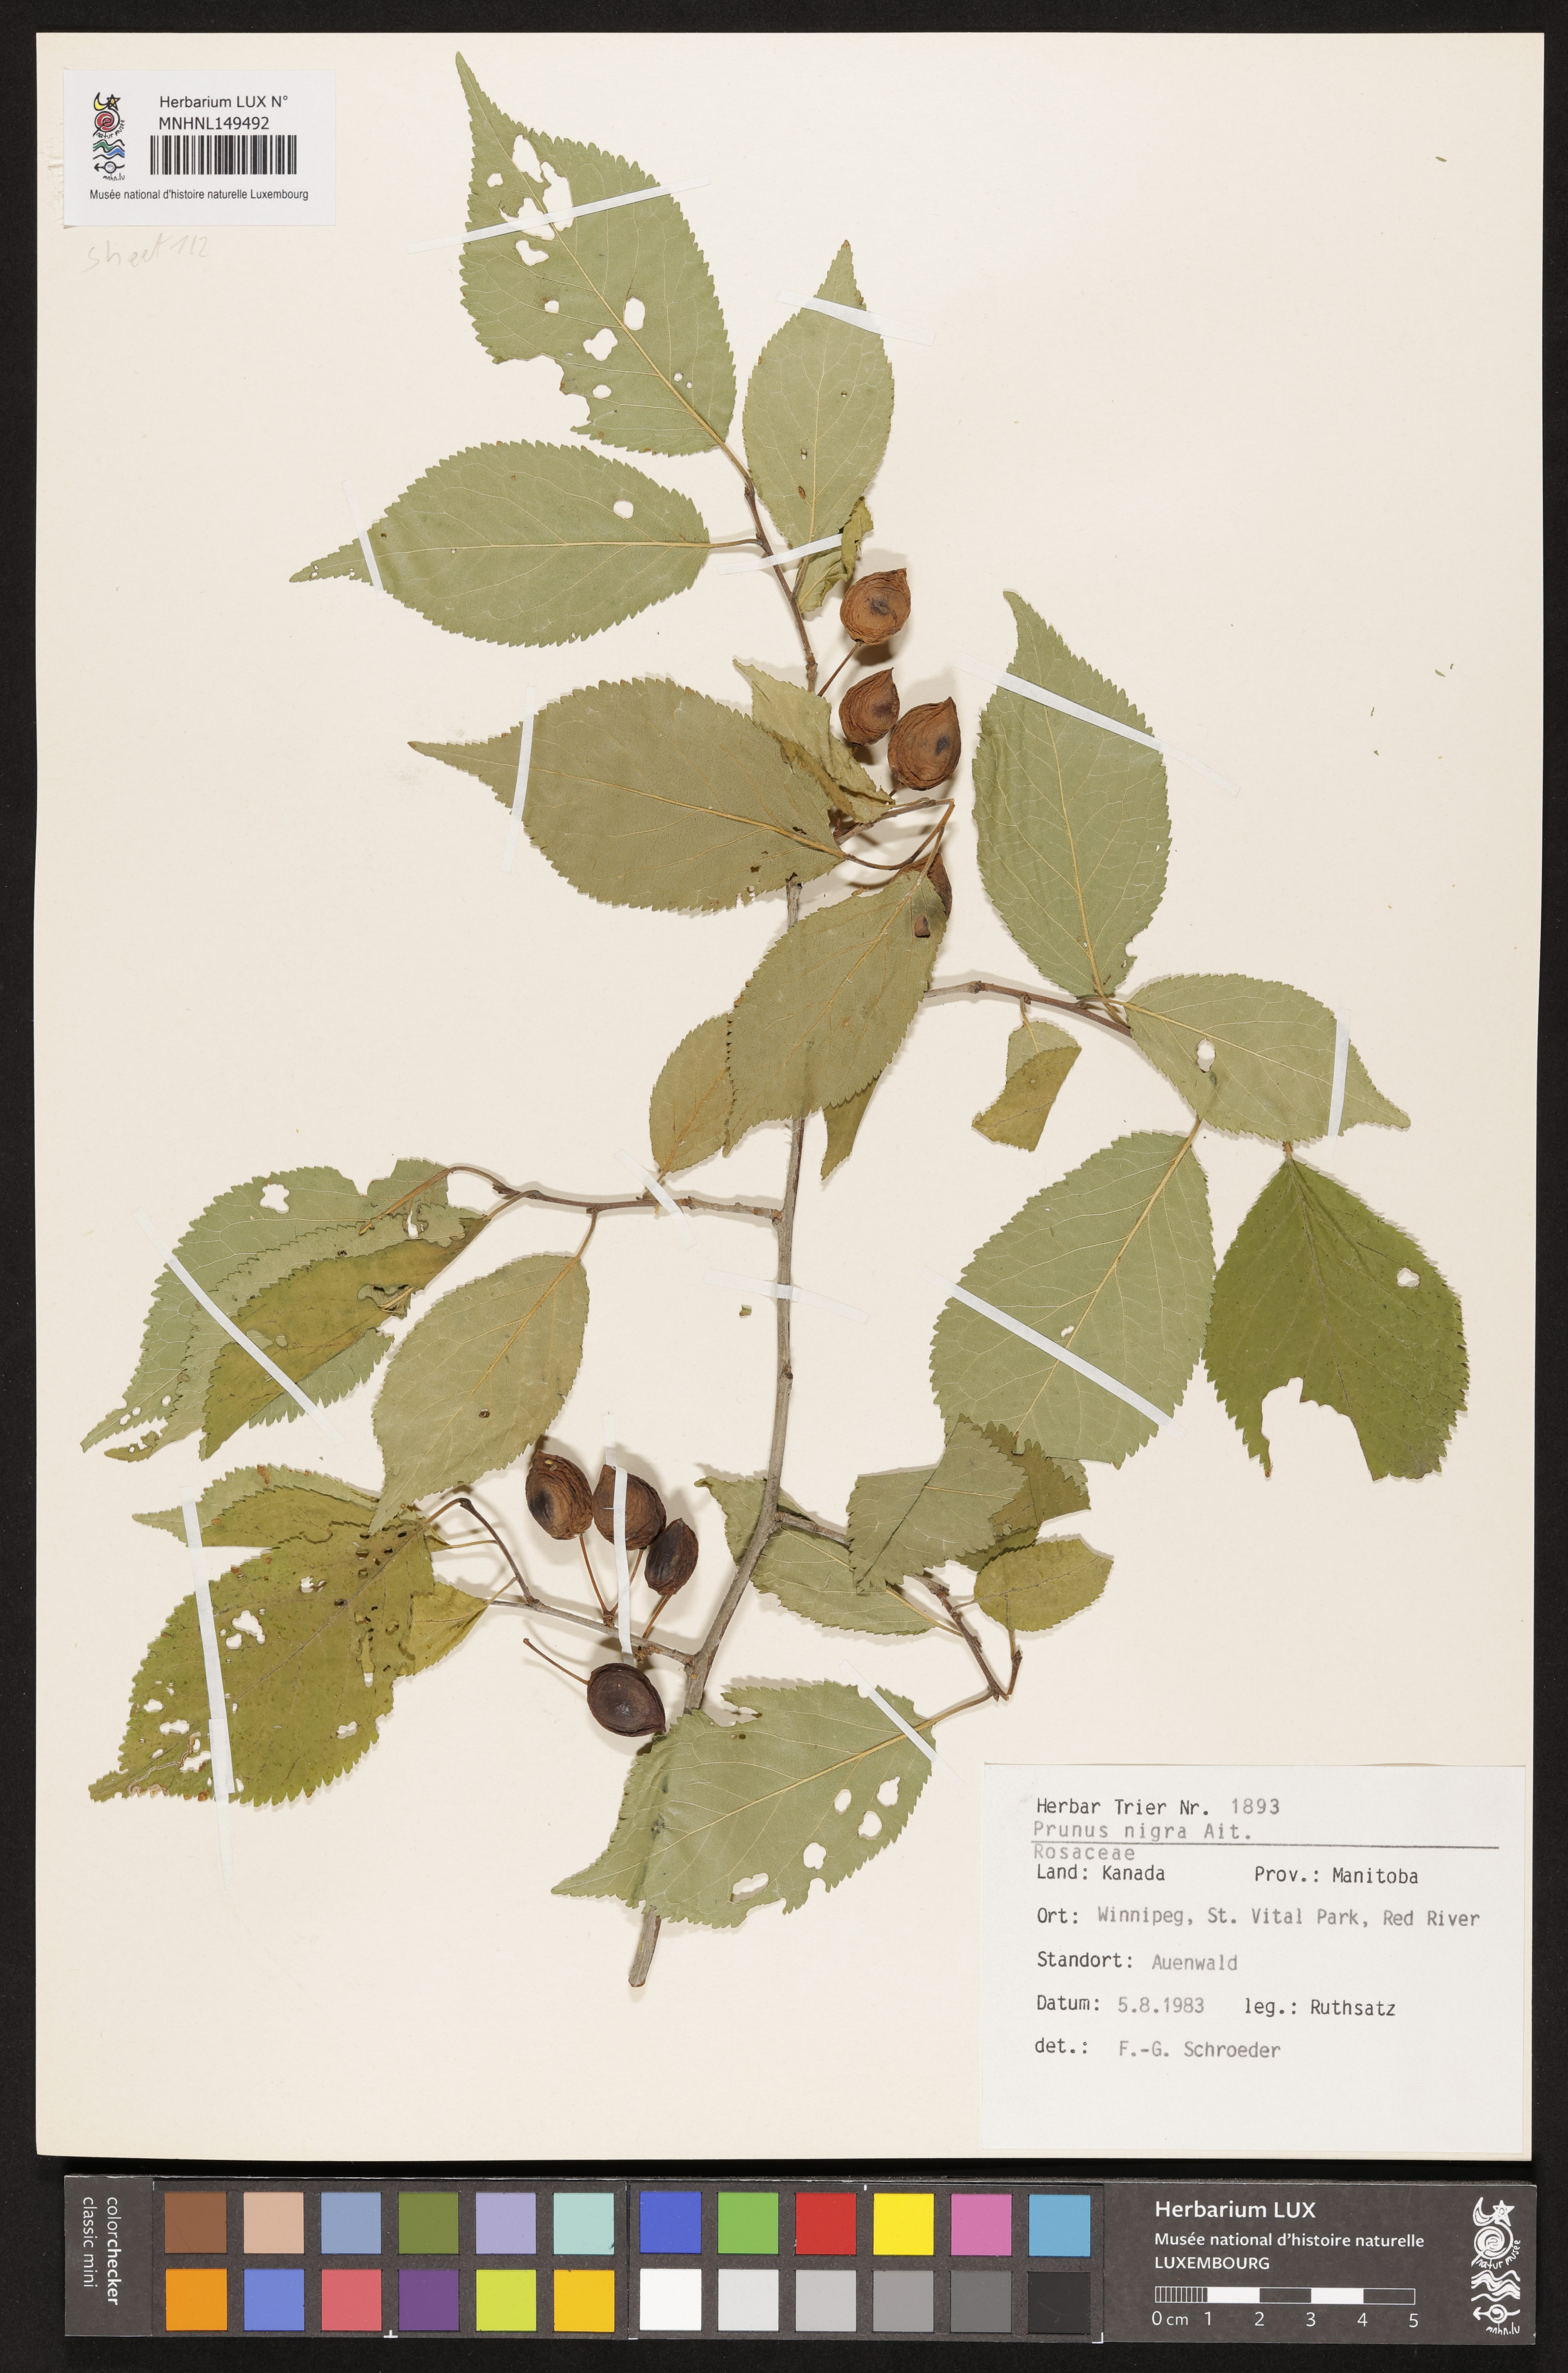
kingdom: Plantae
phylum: Tracheophyta
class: Magnoliopsida
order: Rosales
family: Rosaceae
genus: Prunus
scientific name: Prunus nigra
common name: Black plum
